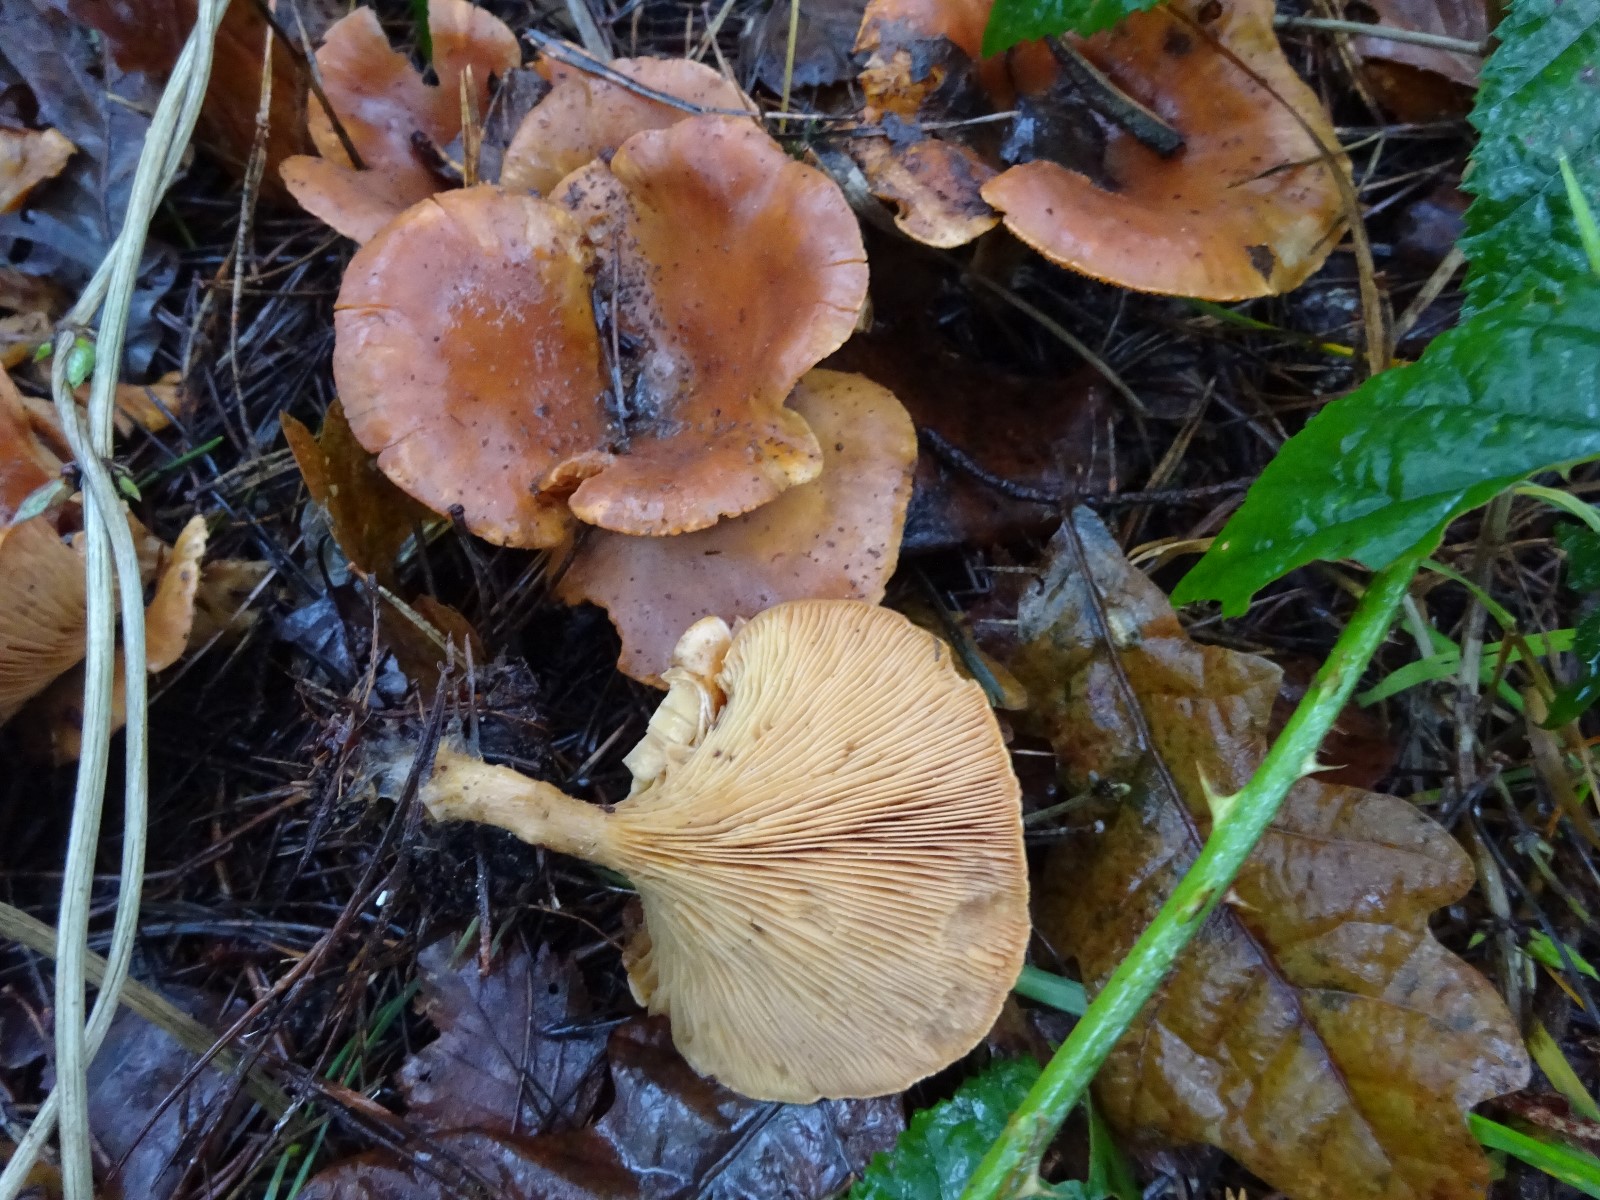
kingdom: Fungi
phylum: Basidiomycota
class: Agaricomycetes
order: Agaricales
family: Tricholomataceae
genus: Paralepista
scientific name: Paralepista flaccida
